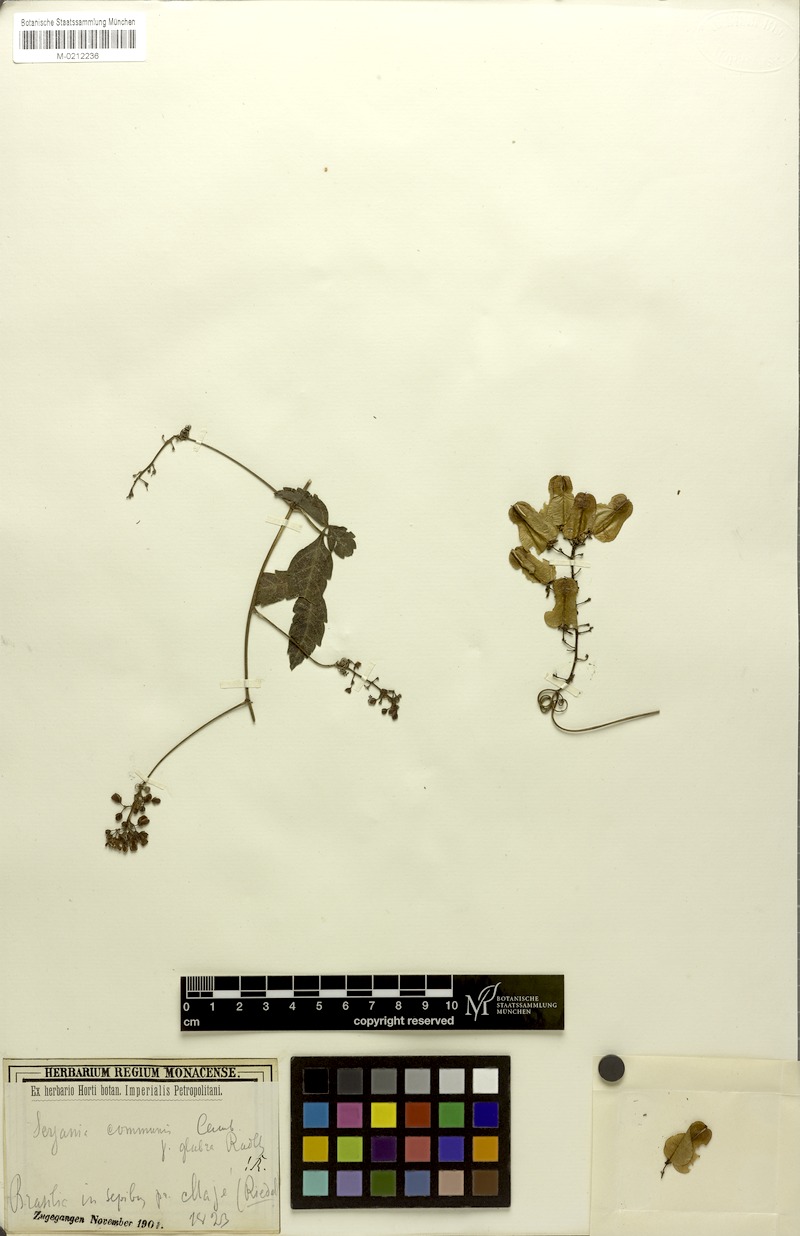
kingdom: Plantae
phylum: Tracheophyta
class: Magnoliopsida
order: Sapindales
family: Sapindaceae
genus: Serjania
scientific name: Serjania communis
